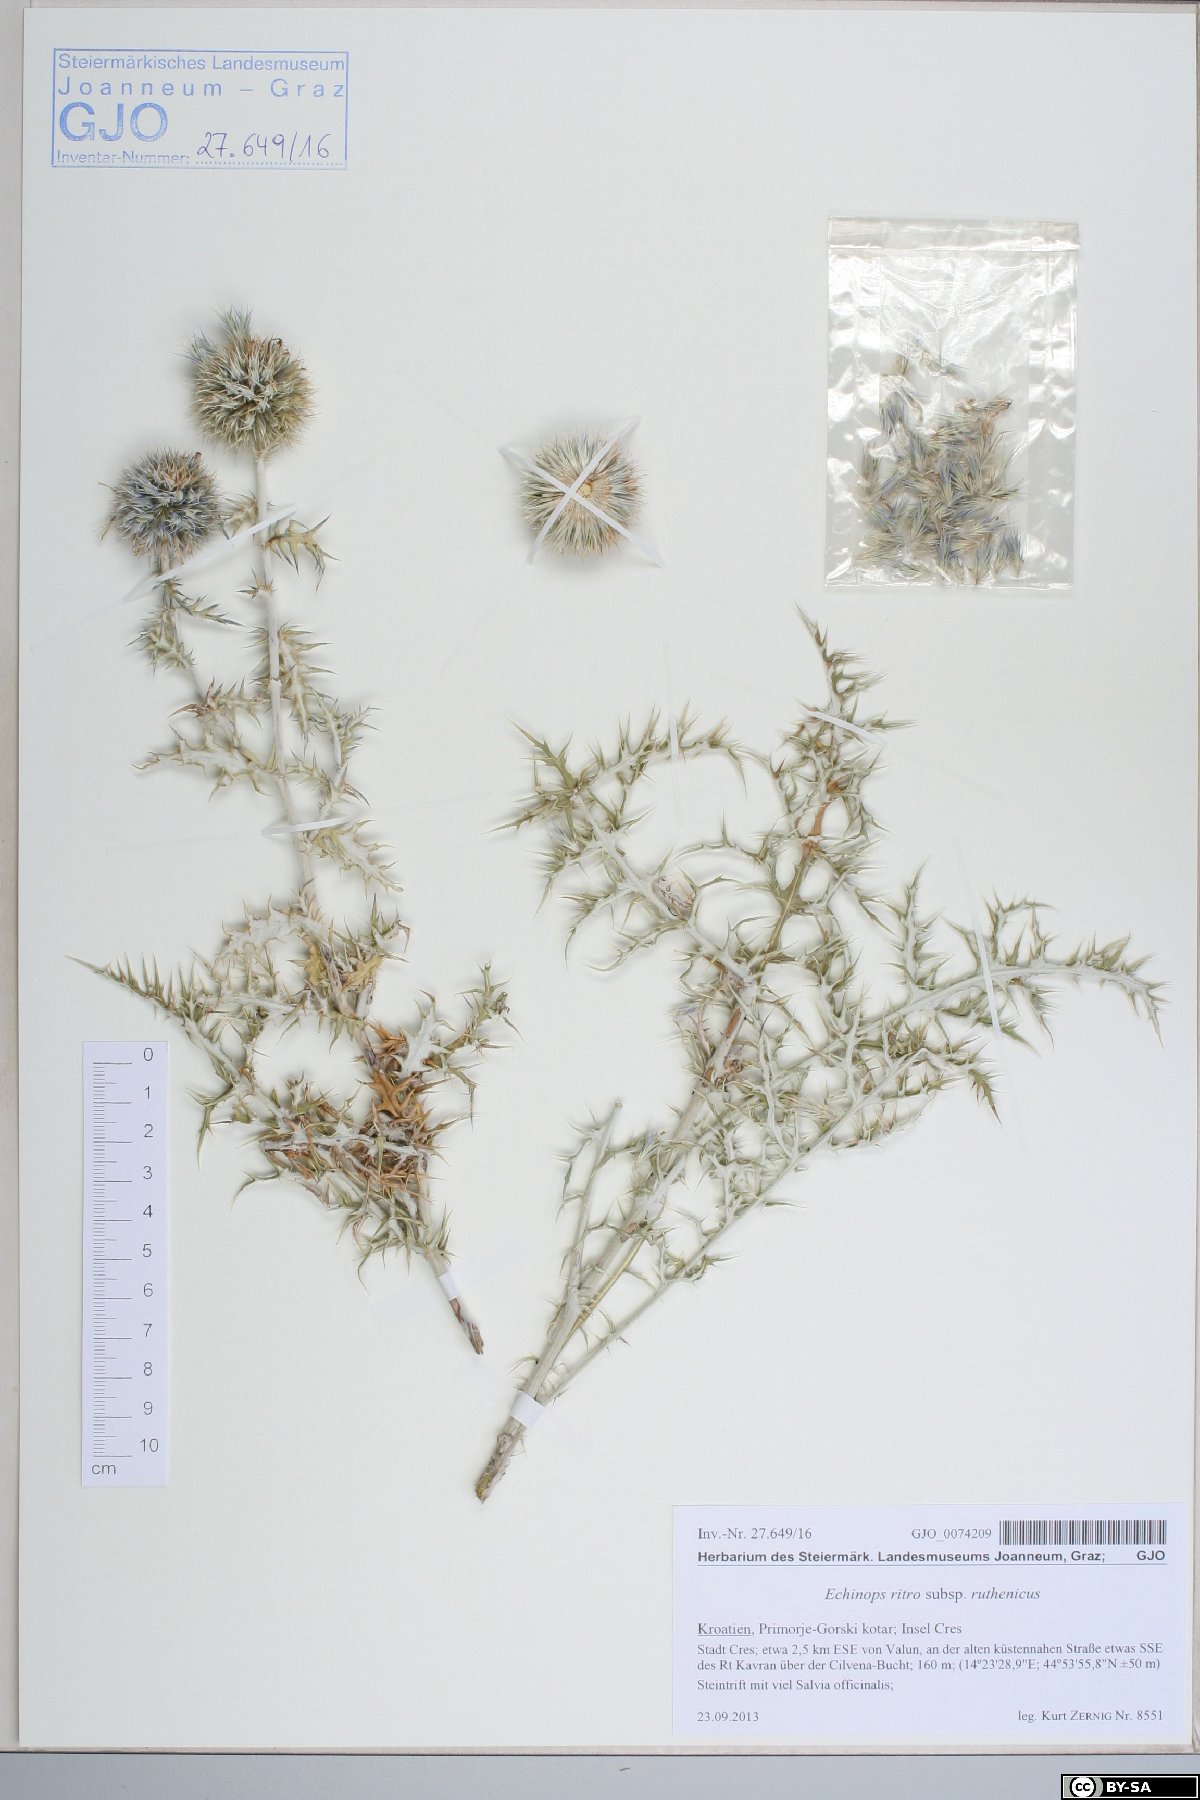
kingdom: Plantae
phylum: Tracheophyta
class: Magnoliopsida
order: Asterales
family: Asteraceae
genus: Echinops
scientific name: Echinops ritro
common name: Globe thistle
